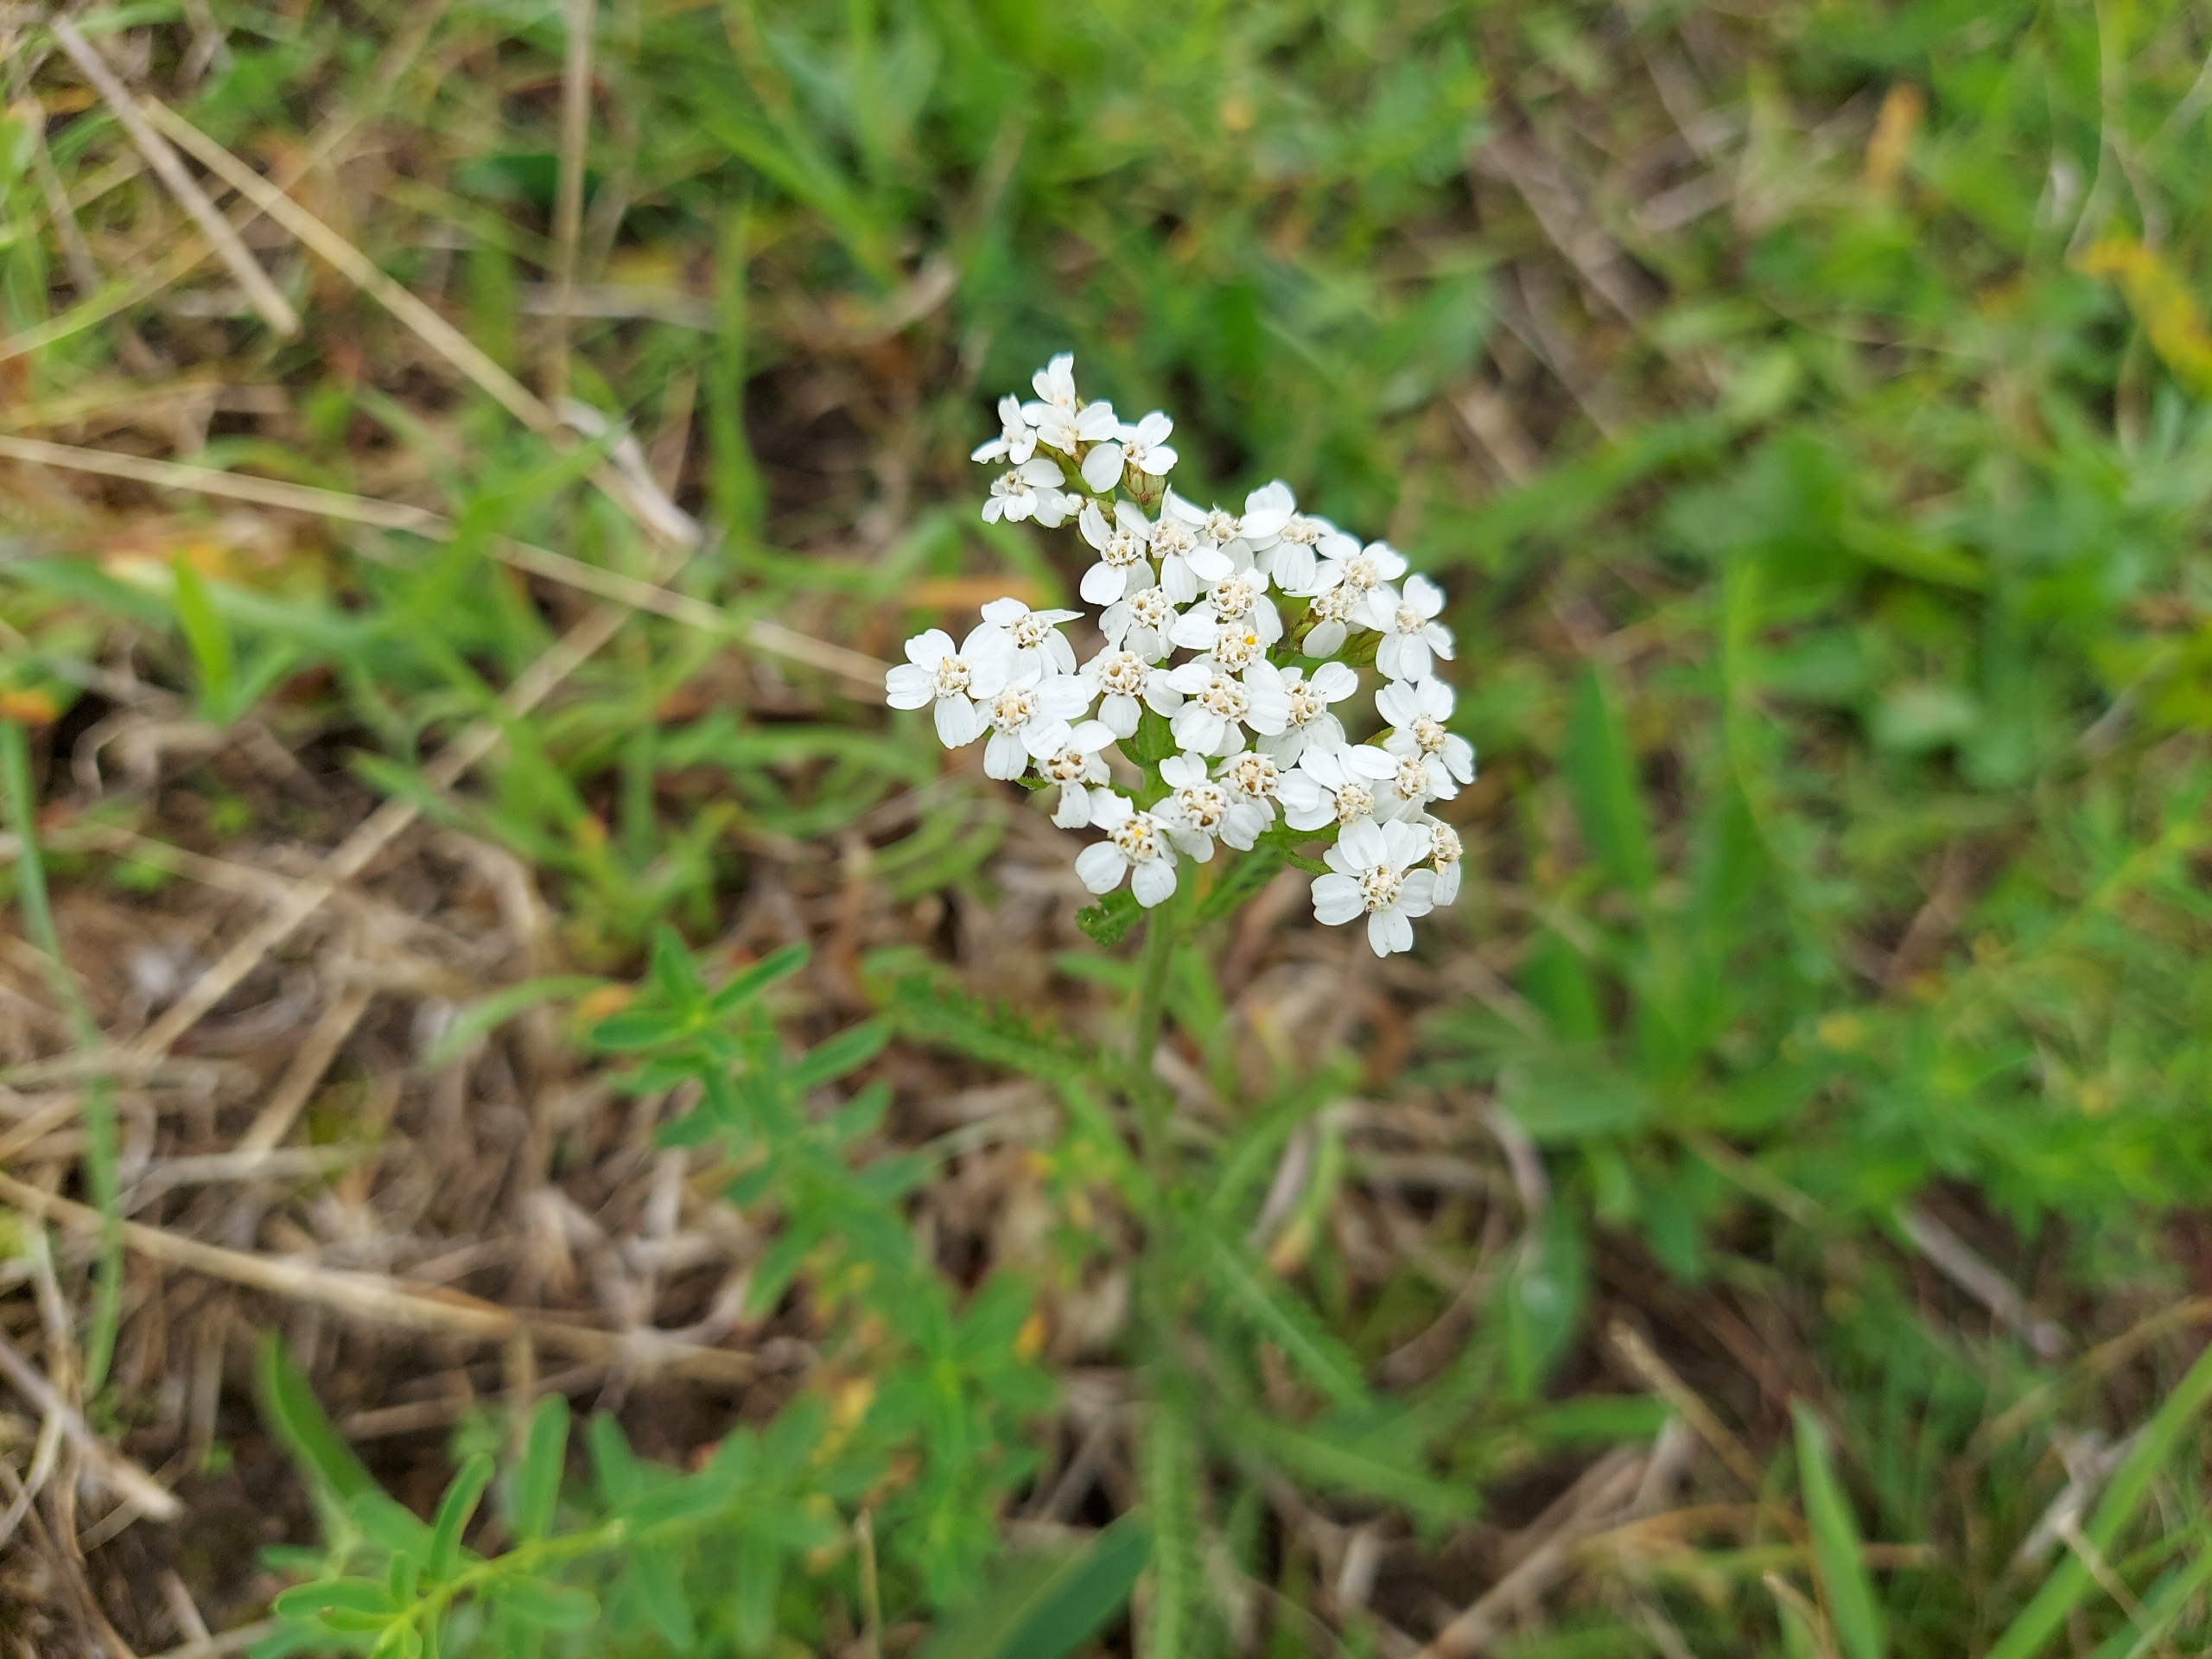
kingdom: Plantae
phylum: Tracheophyta
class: Magnoliopsida
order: Asterales
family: Asteraceae
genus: Achillea
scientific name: Achillea millefolium
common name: Almindelig røllike
